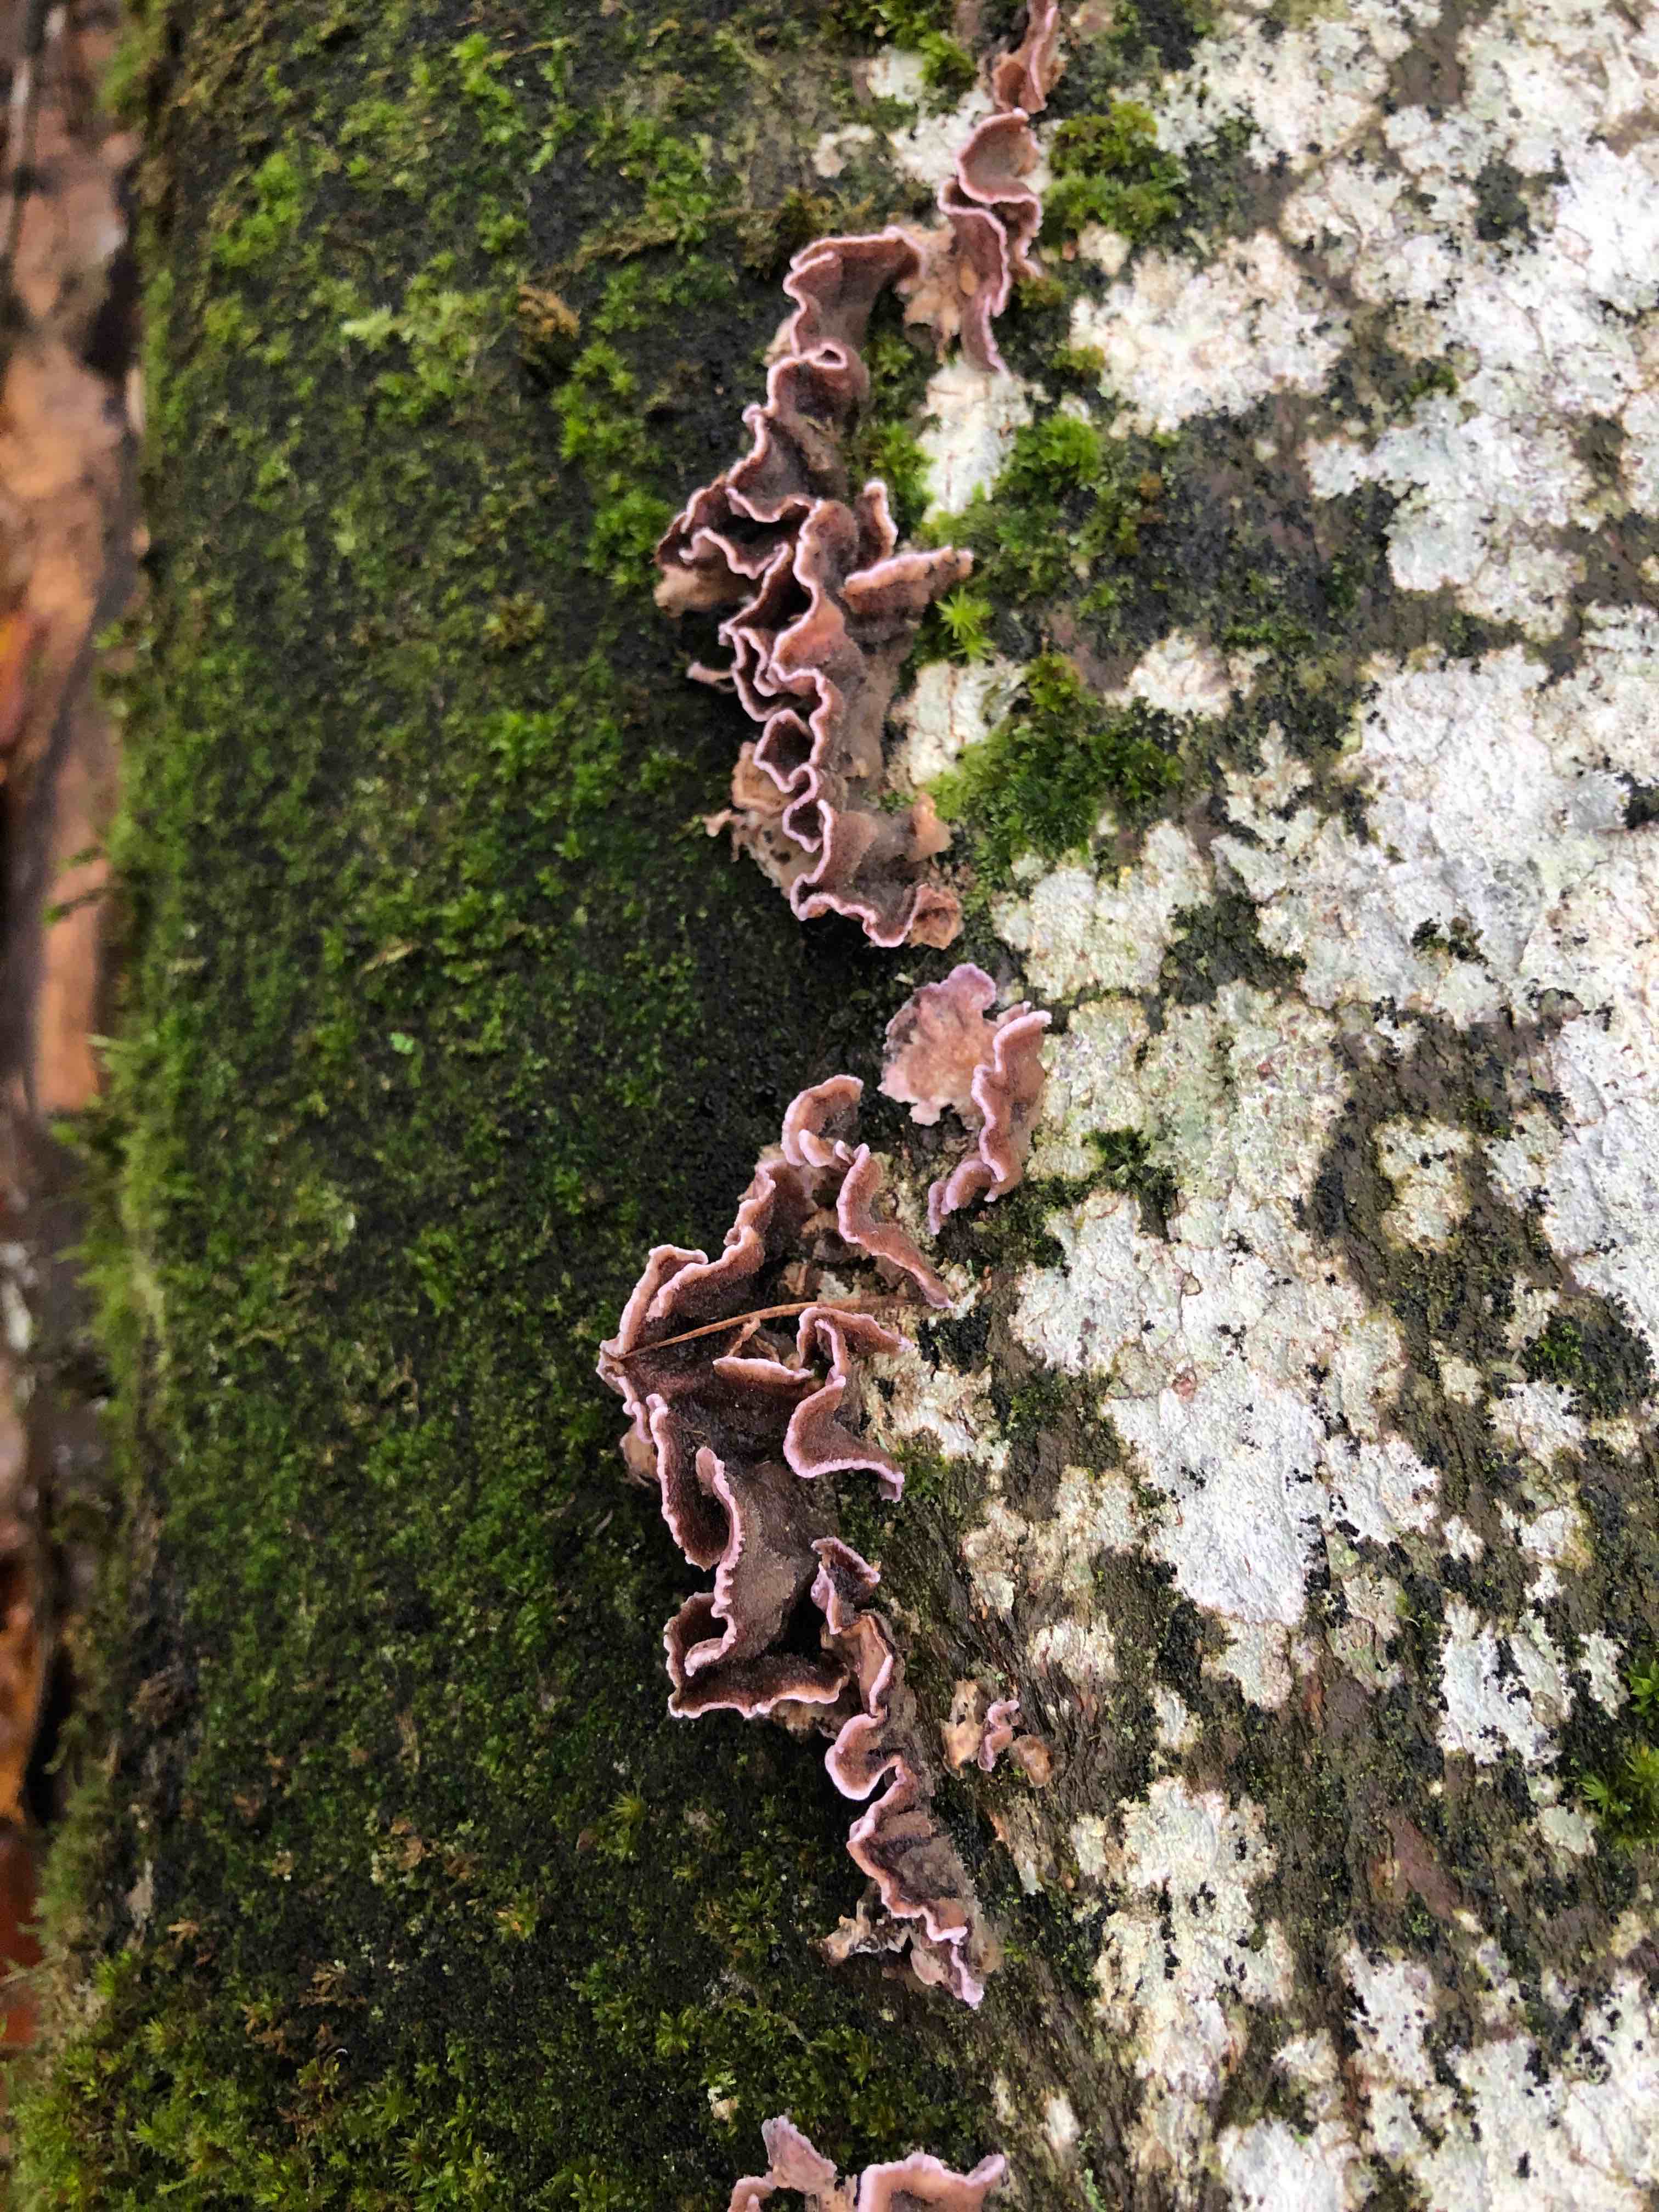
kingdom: Fungi
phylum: Basidiomycota
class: Agaricomycetes
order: Agaricales
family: Cyphellaceae
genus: Chondrostereum
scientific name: Chondrostereum purpureum
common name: purpurlædersvamp
